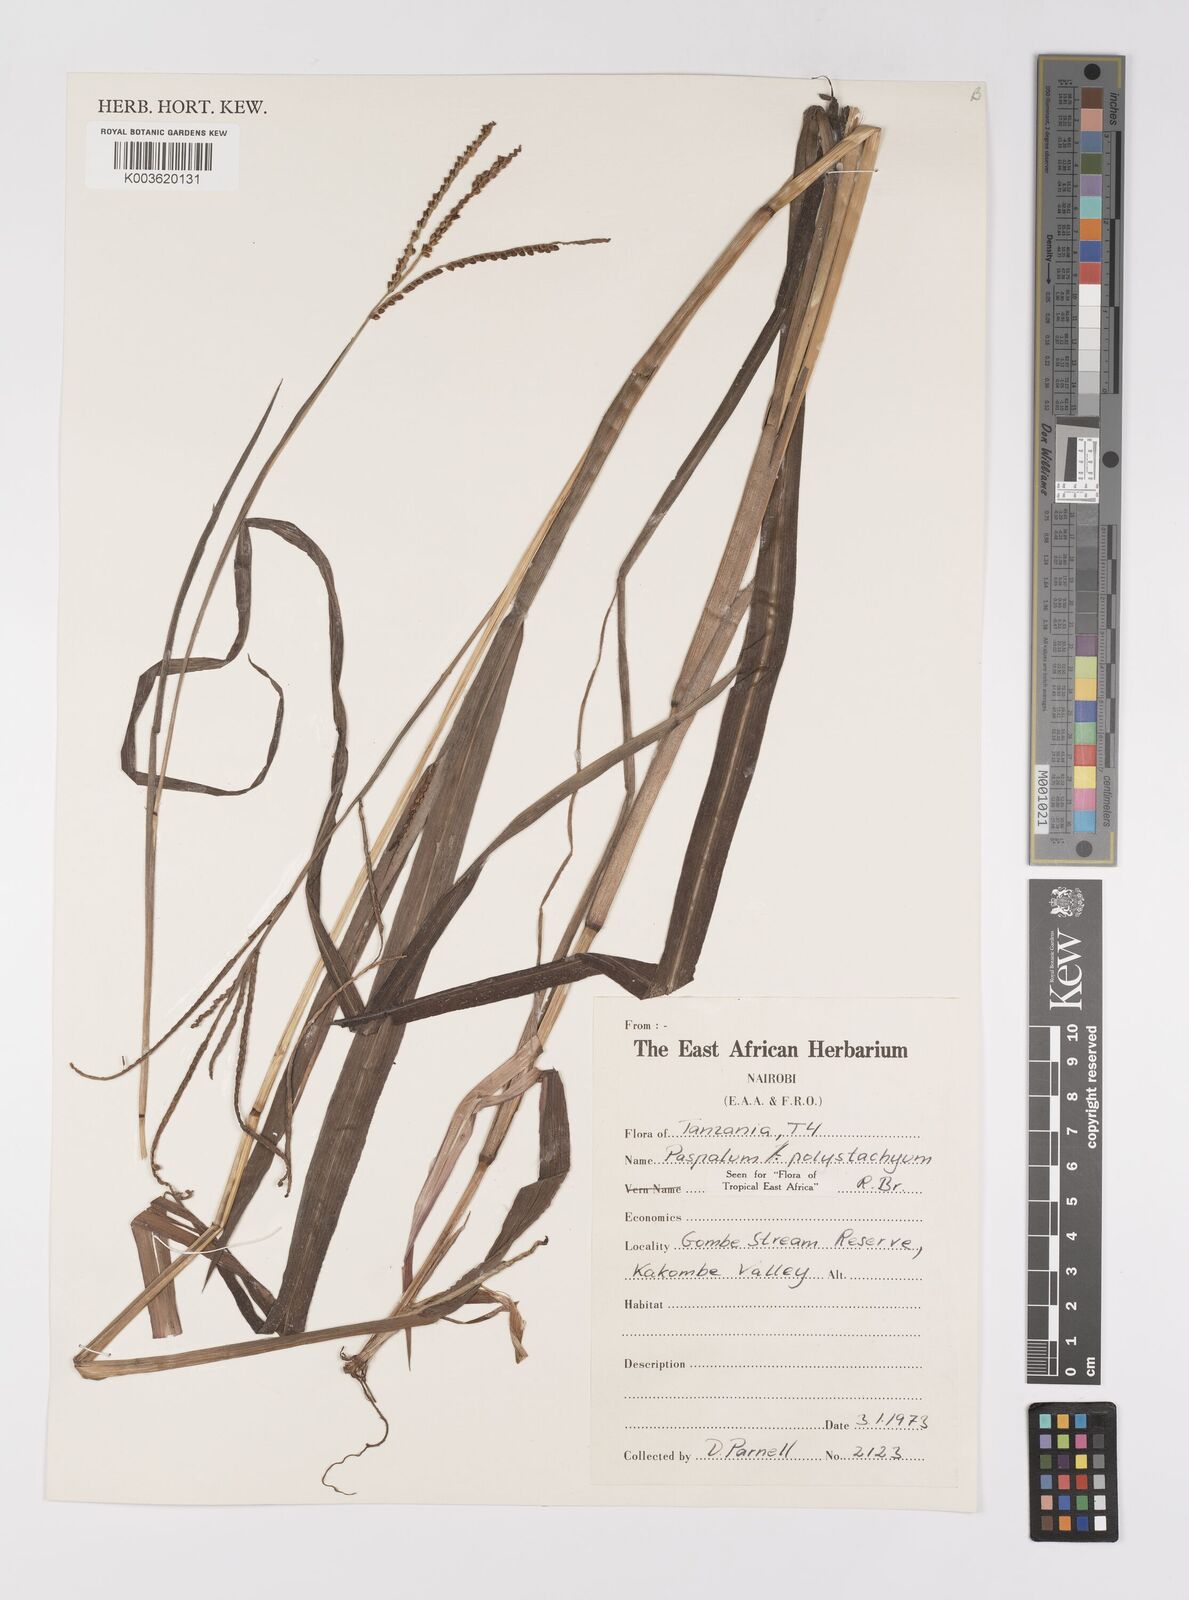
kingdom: Plantae
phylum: Tracheophyta
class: Liliopsida
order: Poales
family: Poaceae
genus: Paspalum
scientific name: Paspalum scrobiculatum
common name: Kodo millet
